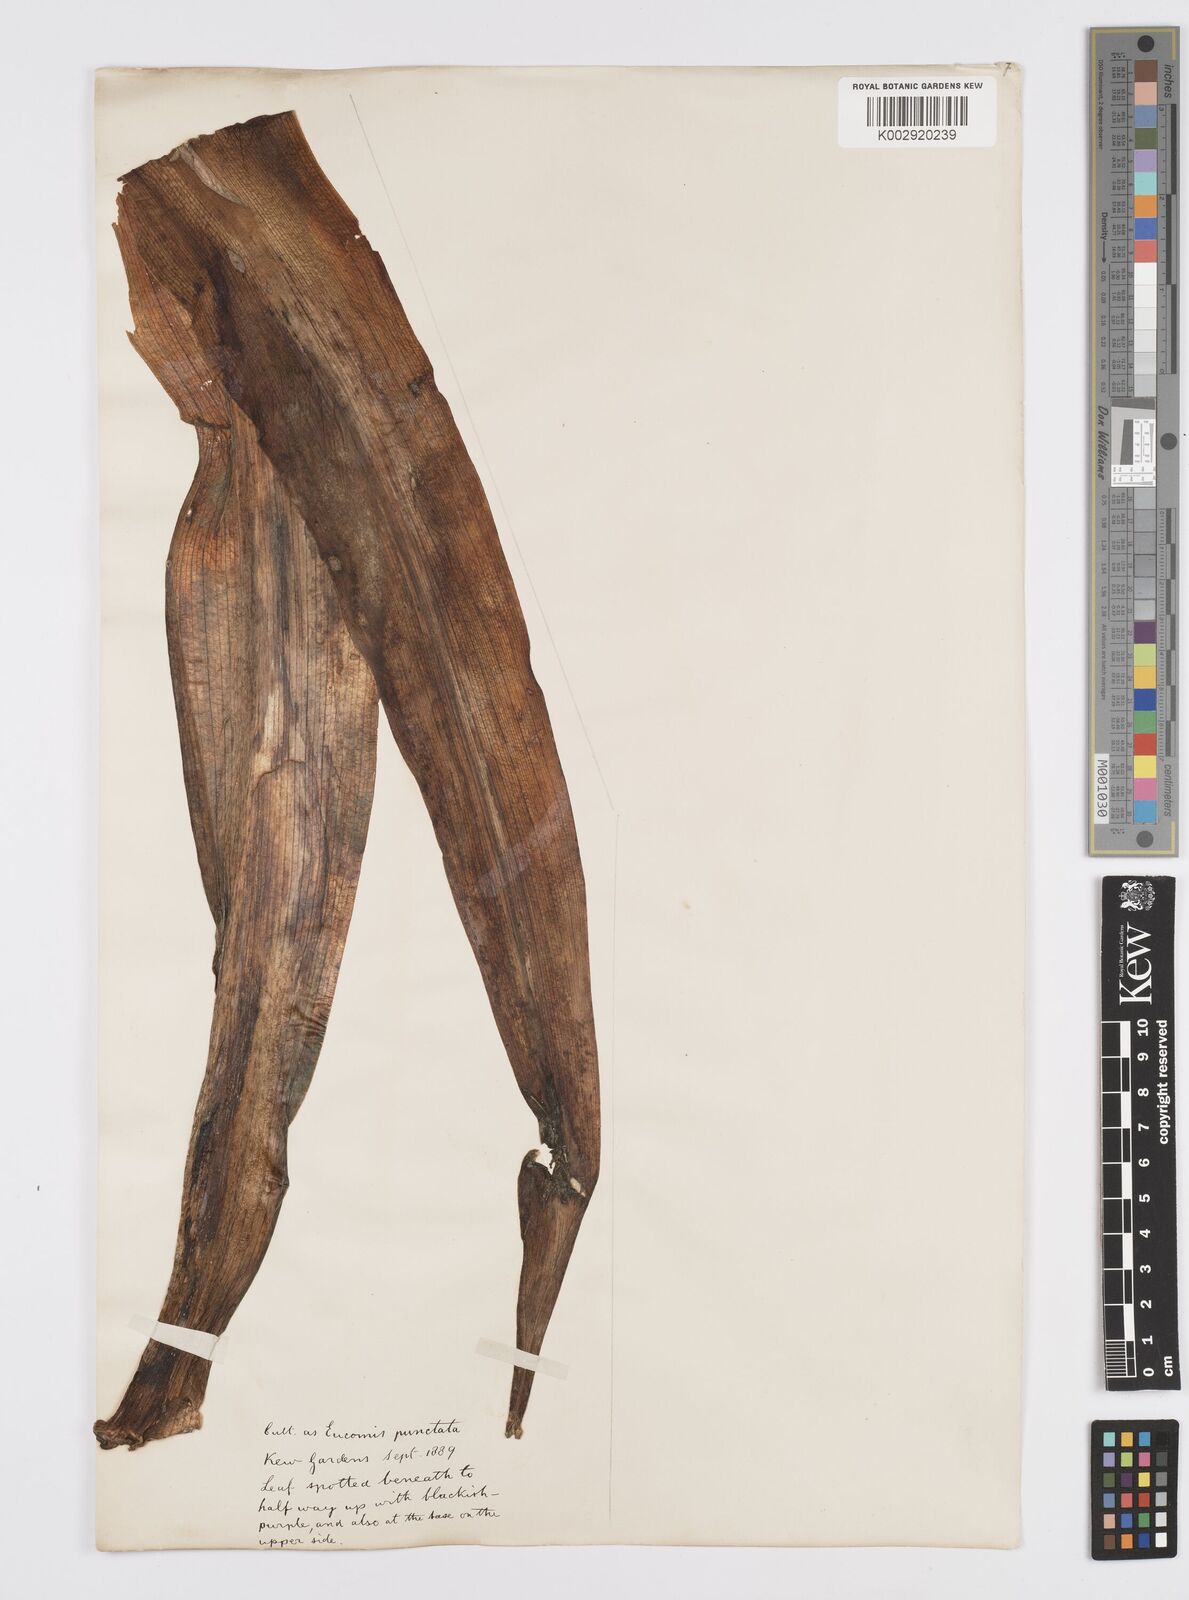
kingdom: Plantae
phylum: Tracheophyta
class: Liliopsida
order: Asparagales
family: Asparagaceae
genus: Eucomis
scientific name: Eucomis comosa
